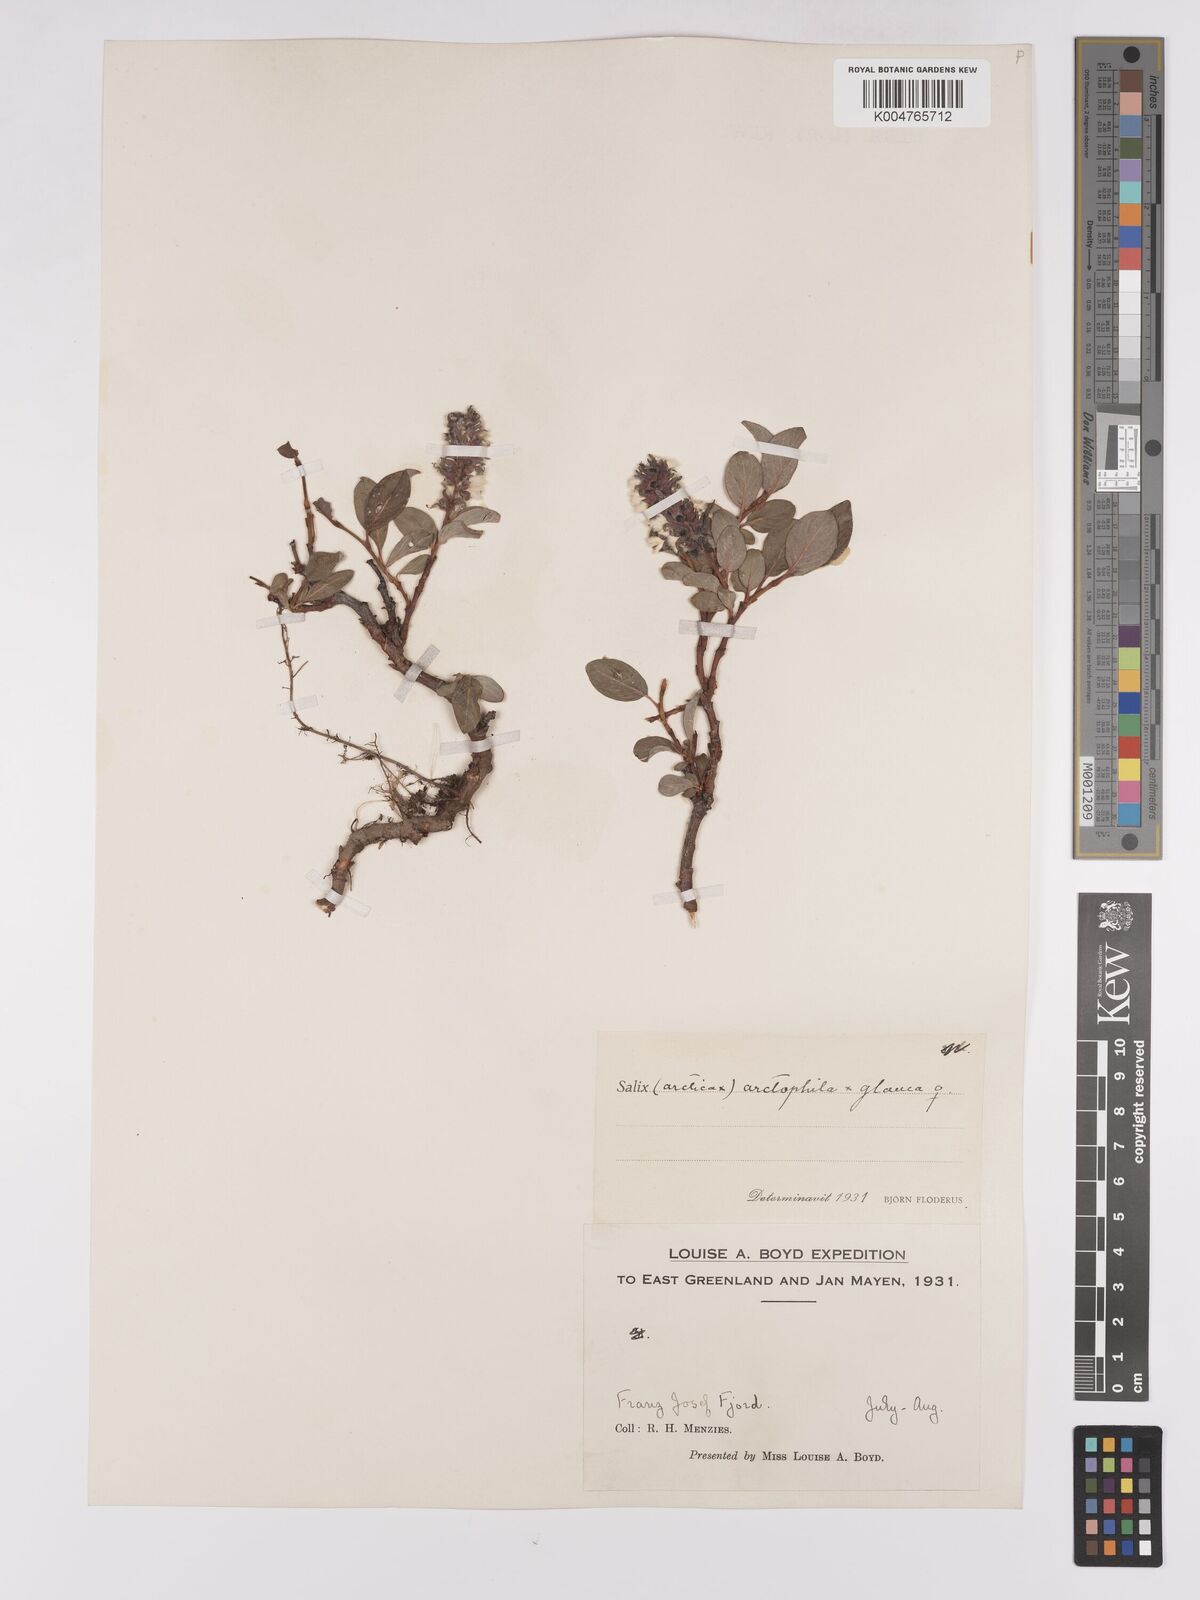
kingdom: Plantae
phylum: Tracheophyta
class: Magnoliopsida
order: Malpighiales
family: Salicaceae
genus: Salix
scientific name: Salix arctophila
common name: Greenland willow
